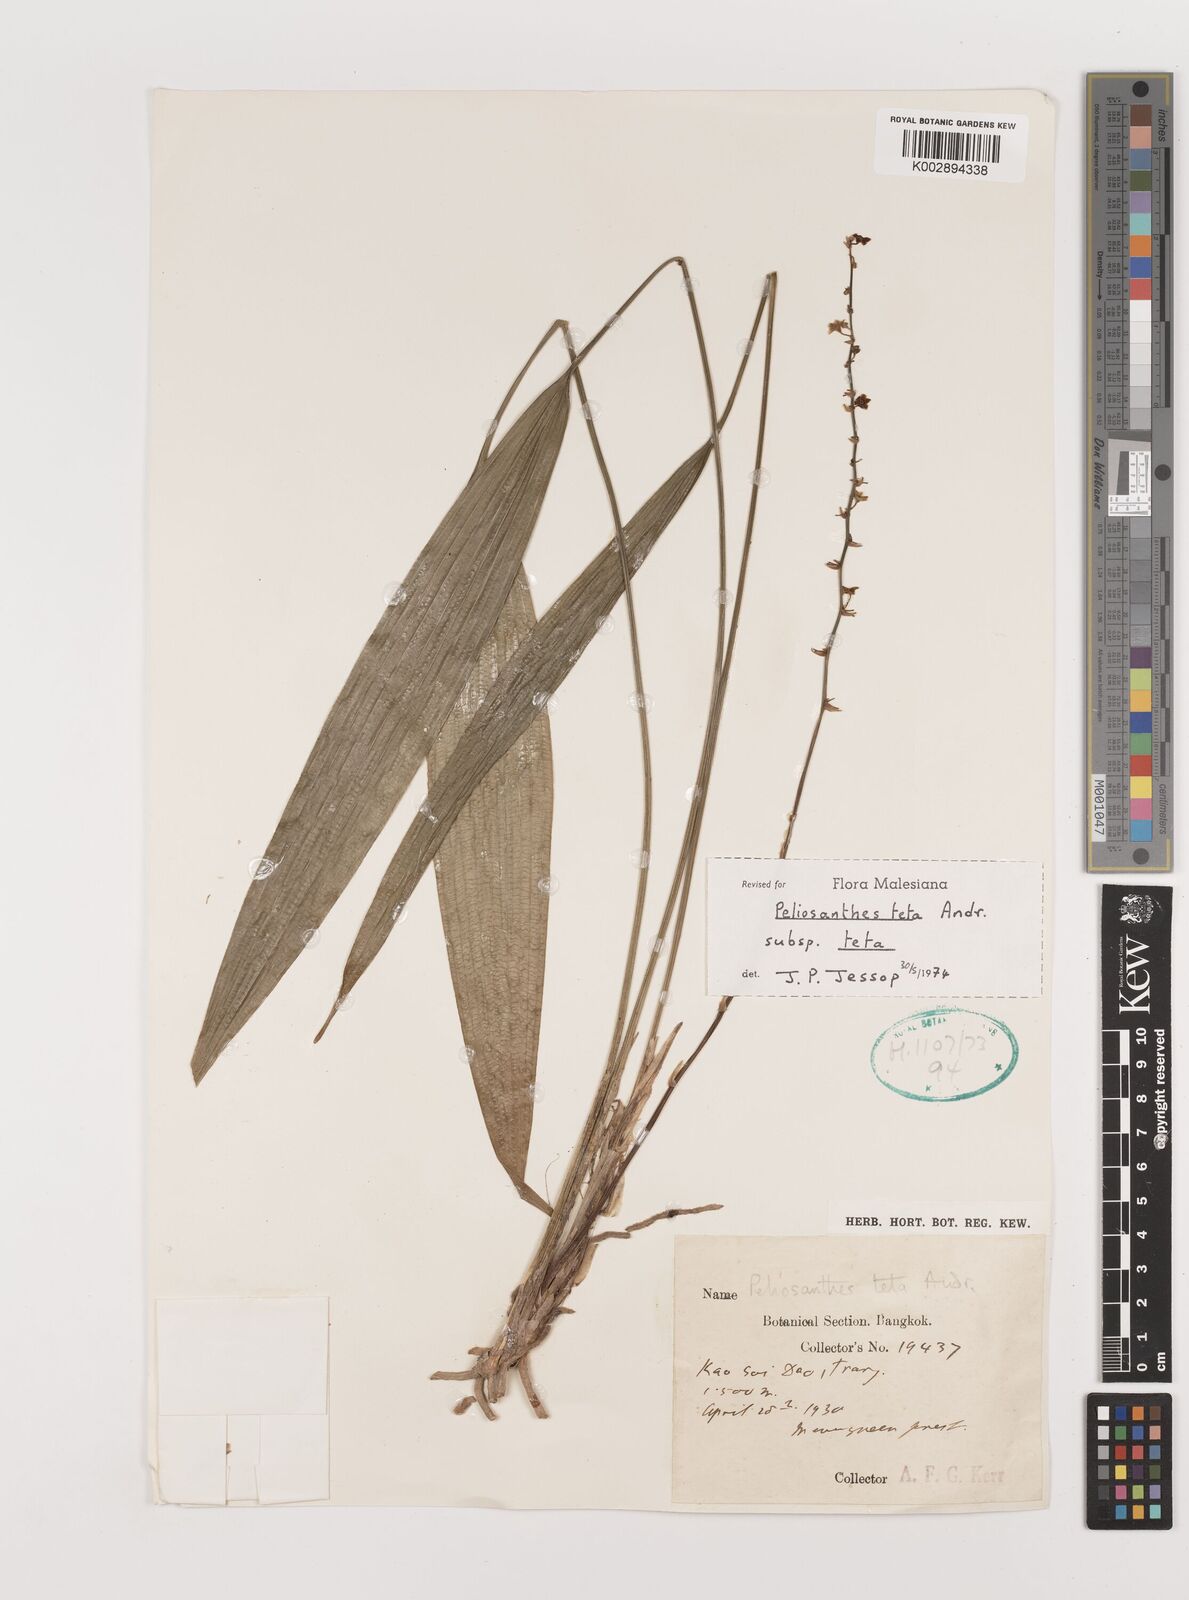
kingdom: Plantae
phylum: Tracheophyta
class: Liliopsida
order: Asparagales
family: Asparagaceae
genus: Peliosanthes
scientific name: Peliosanthes teta
